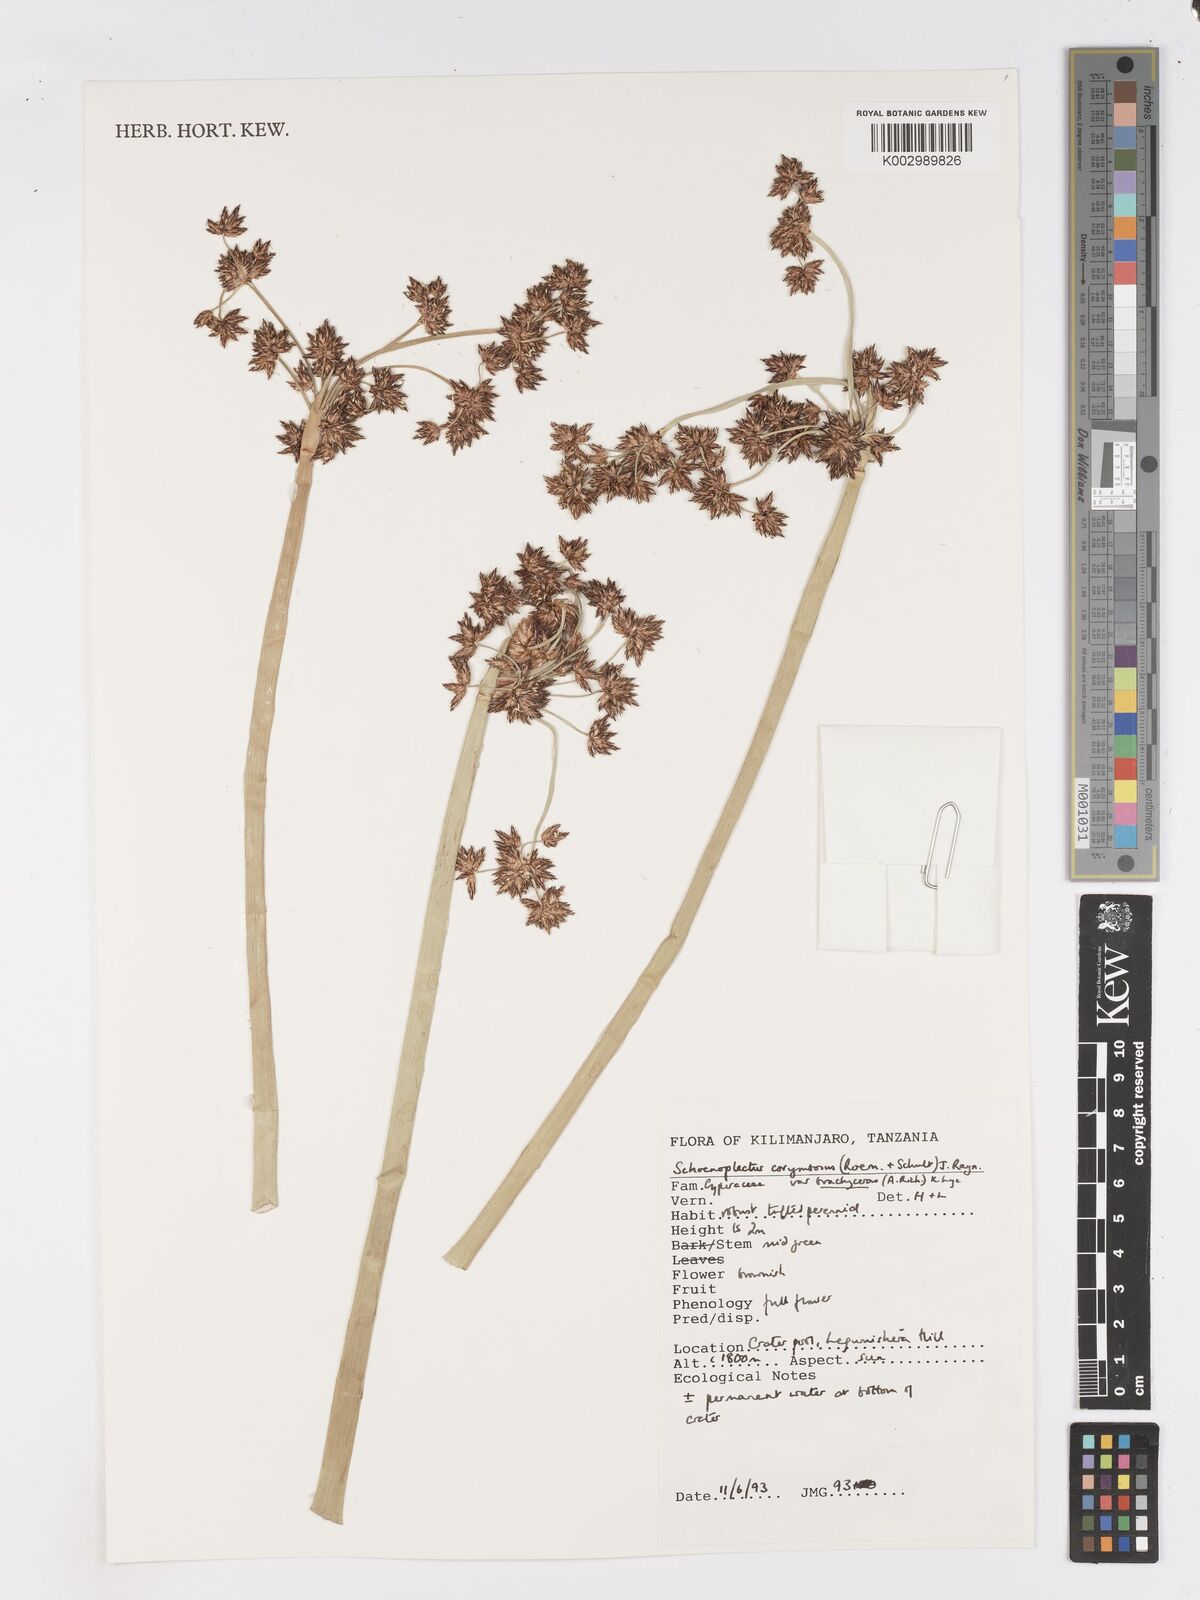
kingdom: Plantae
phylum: Tracheophyta
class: Liliopsida
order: Poales
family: Cyperaceae
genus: Schoenoplectiella
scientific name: Schoenoplectiella brachyceras
